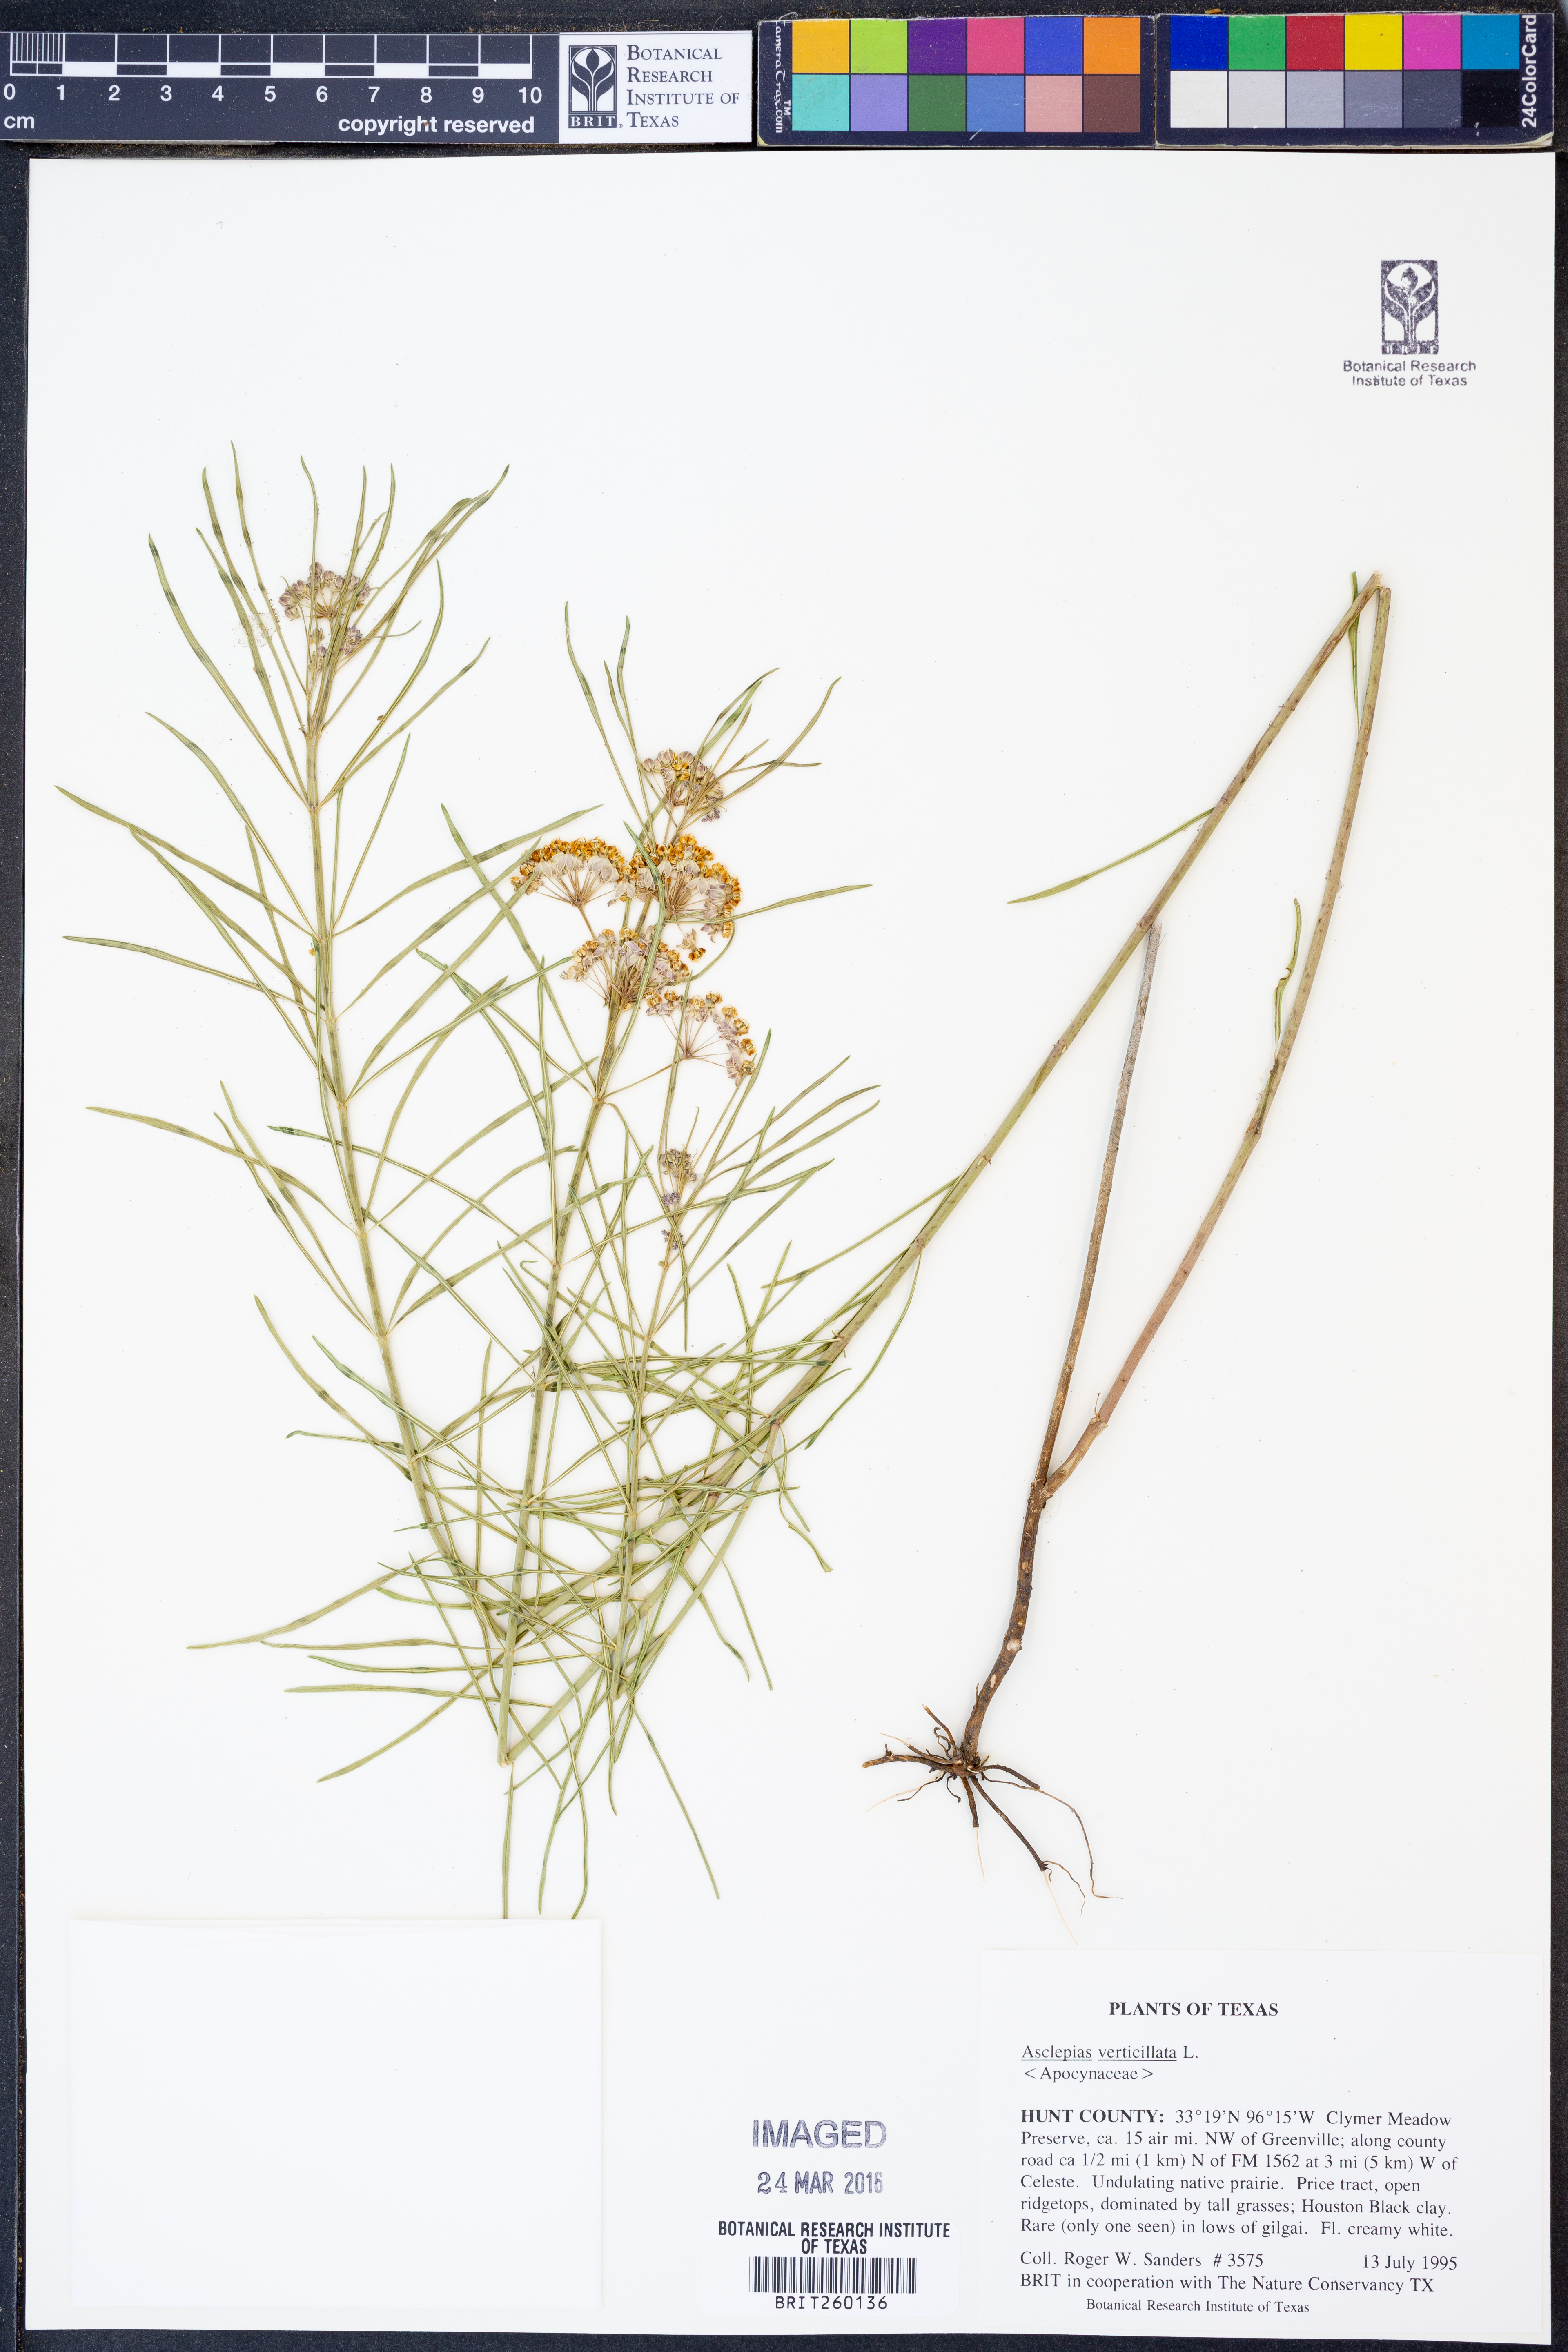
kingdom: Plantae
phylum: Tracheophyta
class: Magnoliopsida
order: Gentianales
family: Apocynaceae
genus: Asclepias
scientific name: Asclepias verticillata
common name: Eastern whorled milkweed
